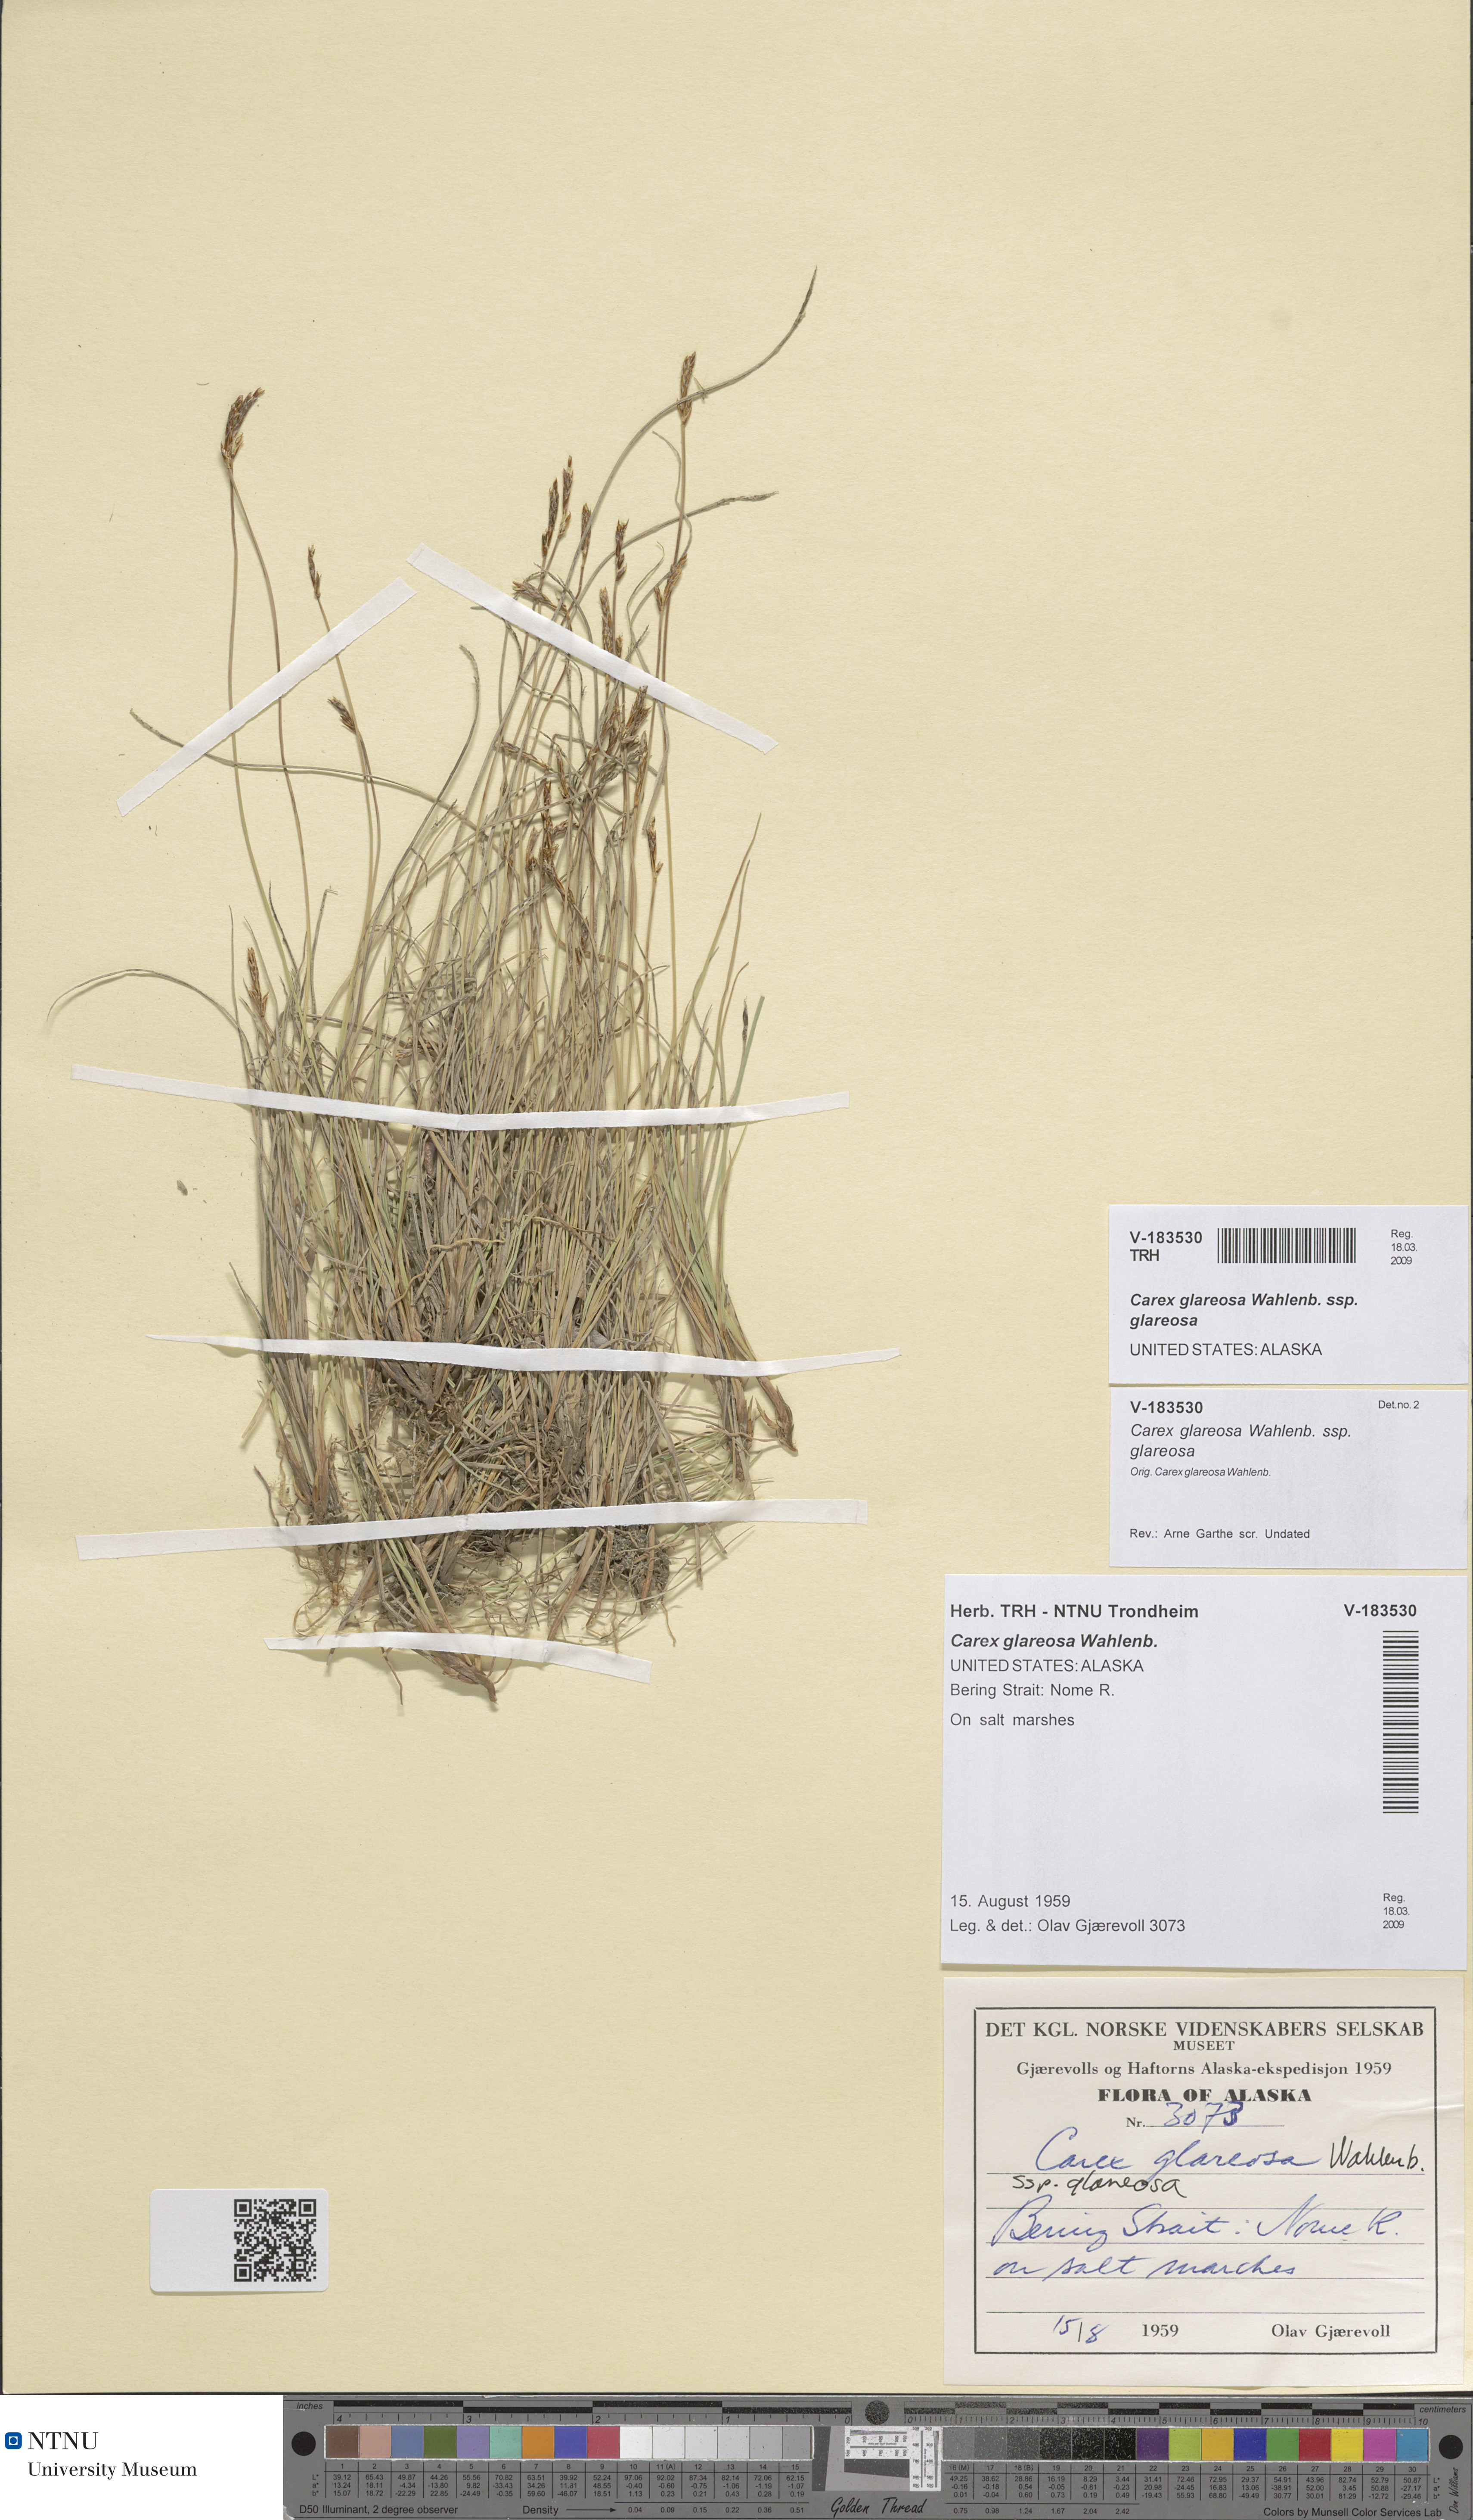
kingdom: Plantae
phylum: Tracheophyta
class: Liliopsida
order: Poales
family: Cyperaceae
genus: Carex
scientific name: Carex glareosa
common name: Clustered sedge
